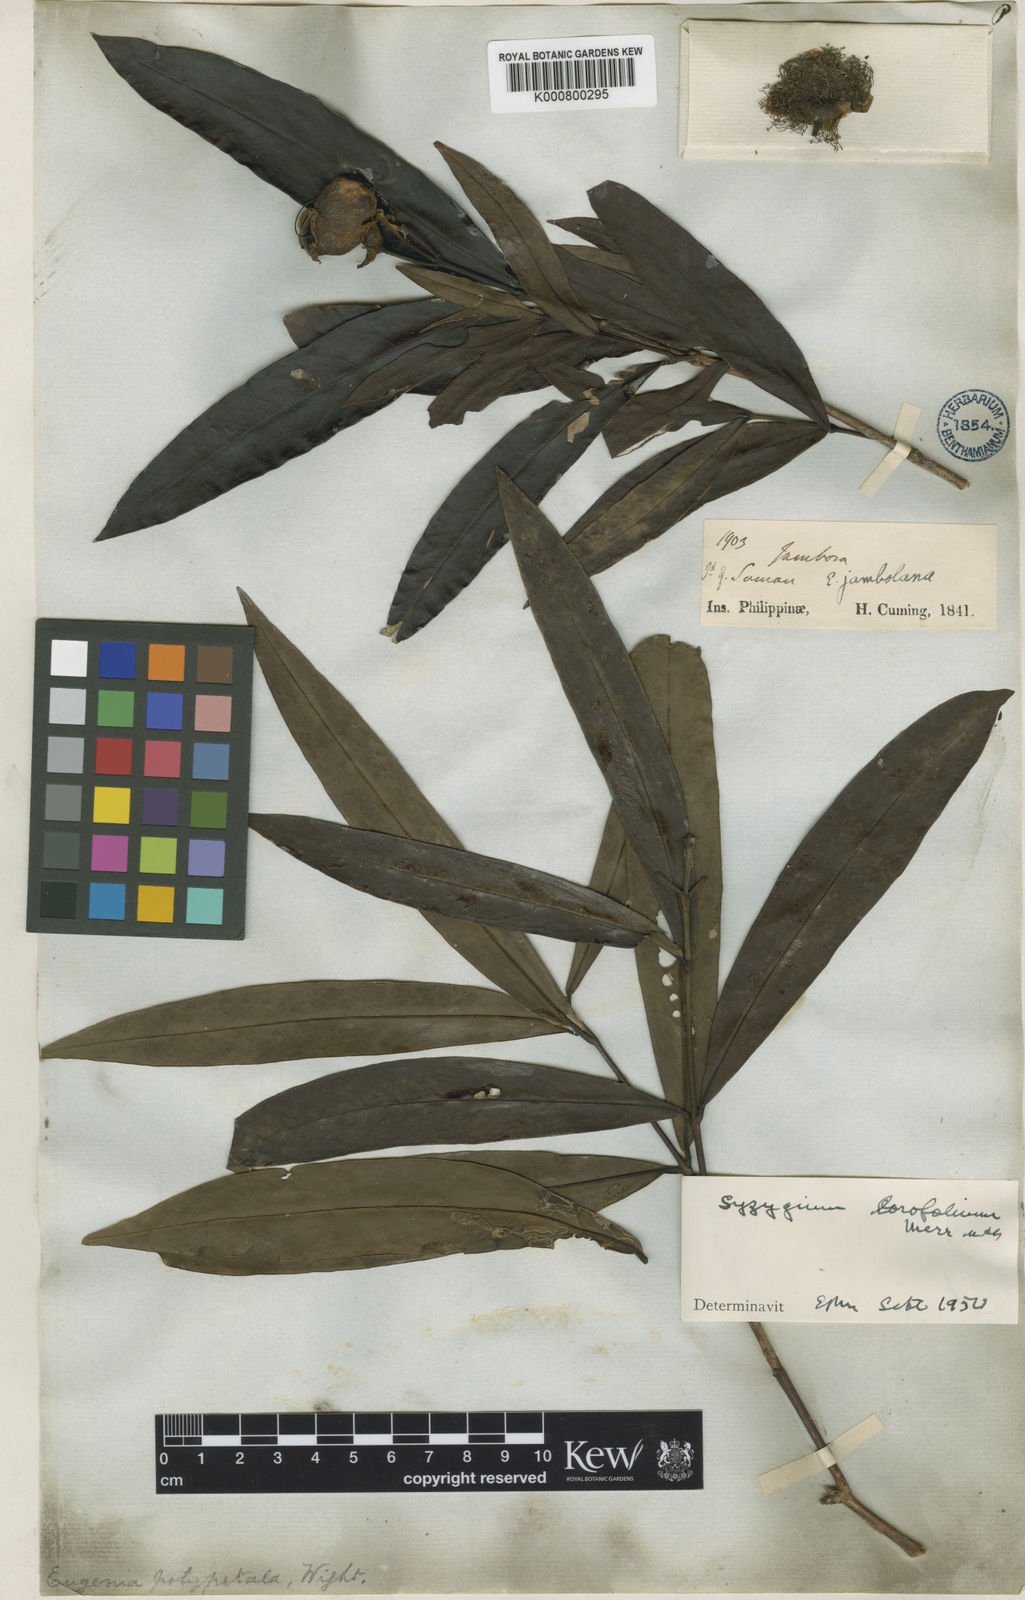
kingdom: Plantae
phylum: Tracheophyta
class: Magnoliopsida
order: Myrtales
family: Myrtaceae
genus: Syzygium
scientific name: Syzygium lorofolium
